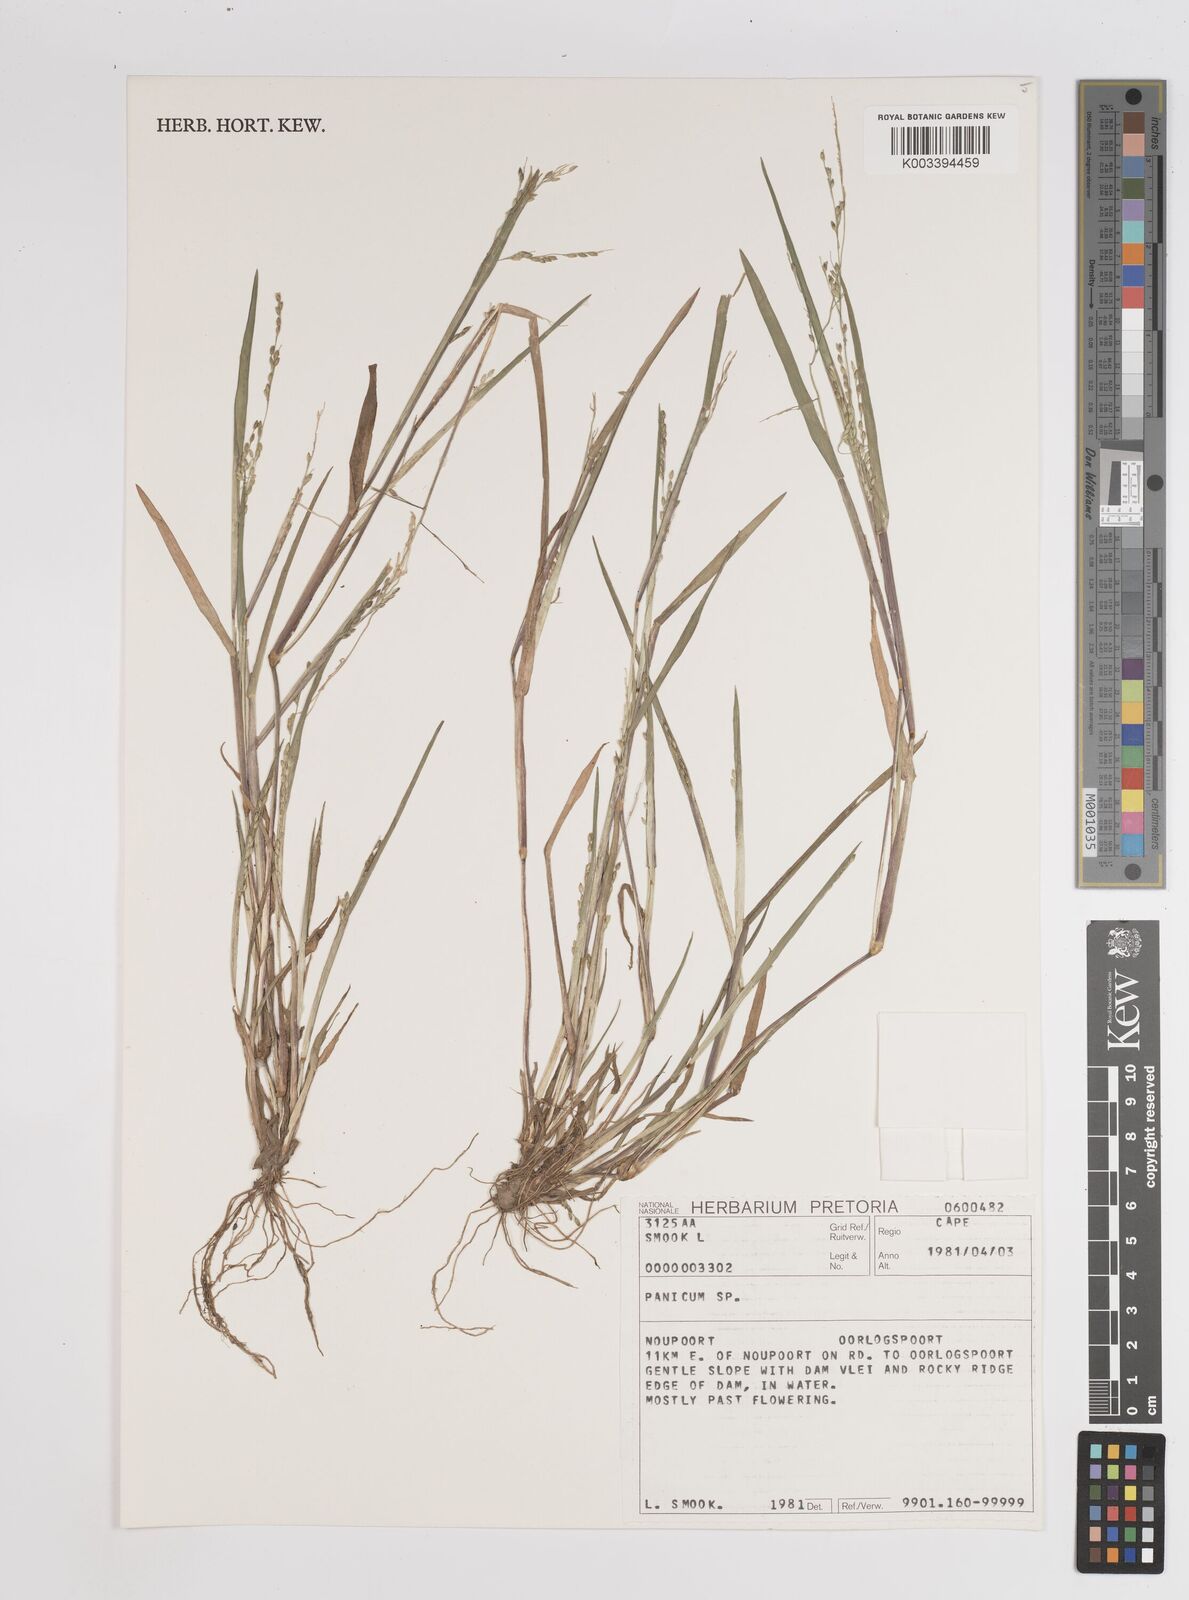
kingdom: Plantae
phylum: Tracheophyta
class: Liliopsida
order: Poales
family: Poaceae
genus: Panicum
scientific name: Panicum
